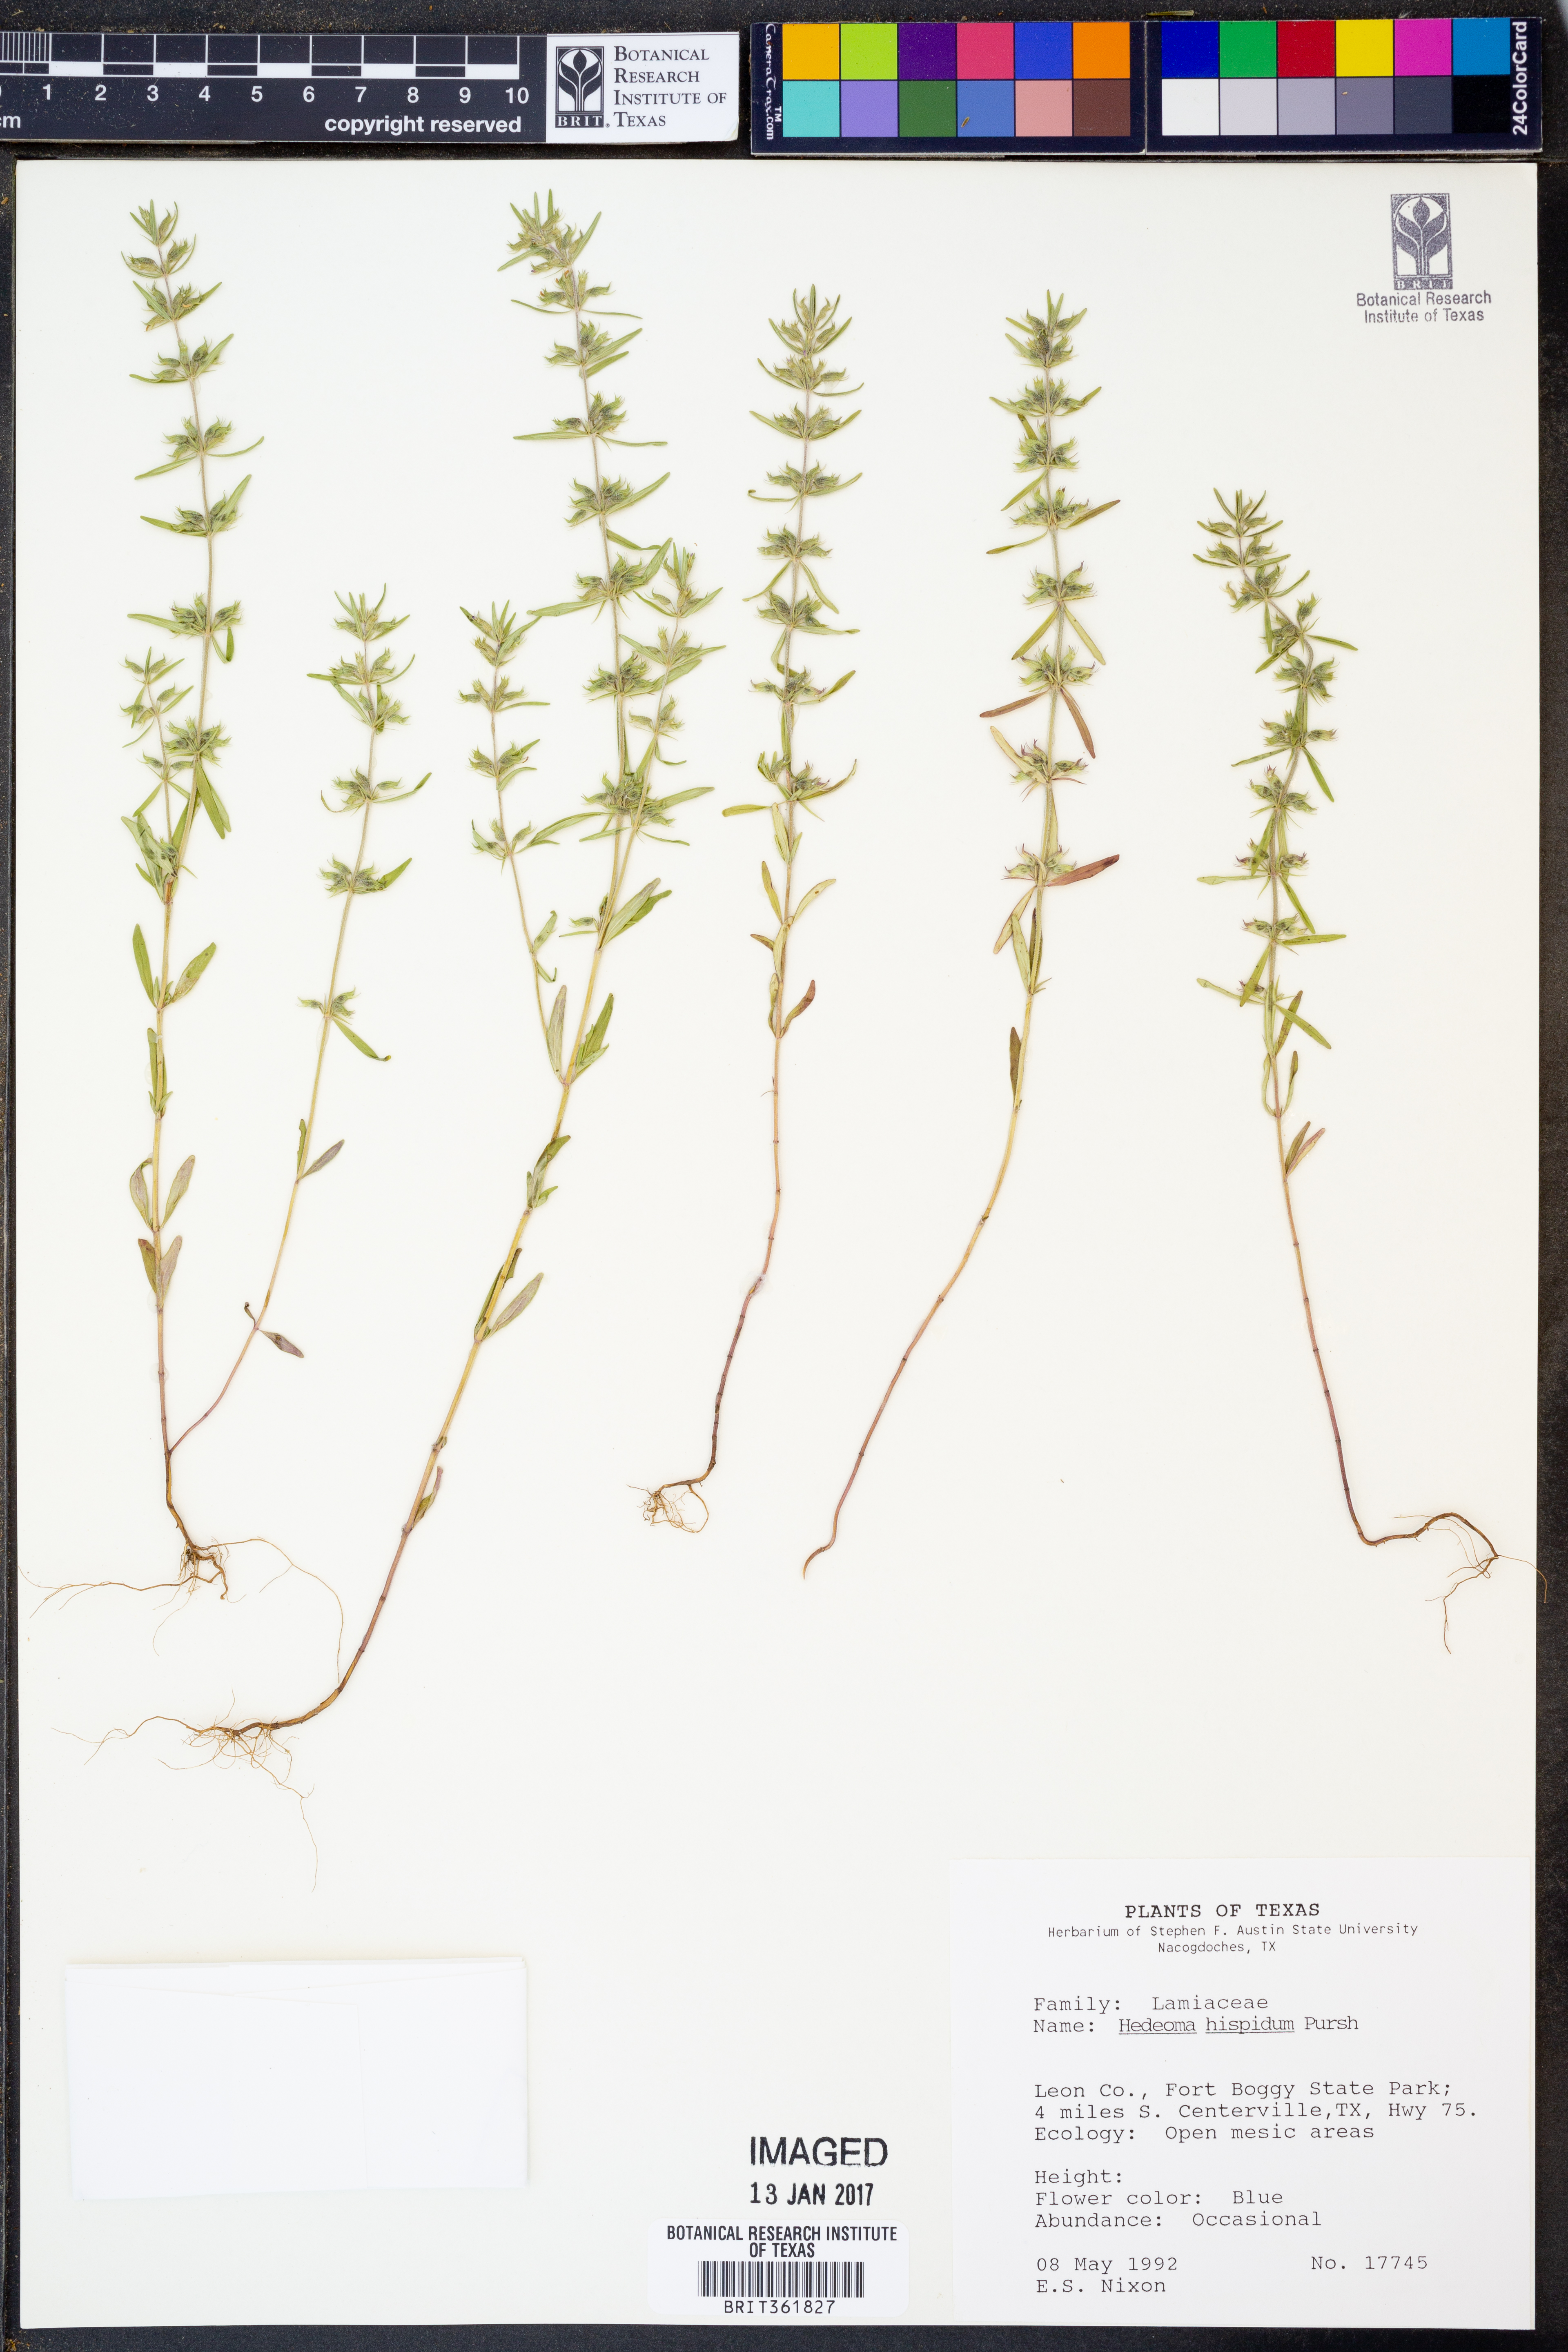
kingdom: Plantae
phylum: Tracheophyta
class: Magnoliopsida
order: Lamiales
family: Lamiaceae
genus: Hedeoma
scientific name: Hedeoma hispida
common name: Mock pennyroyal
